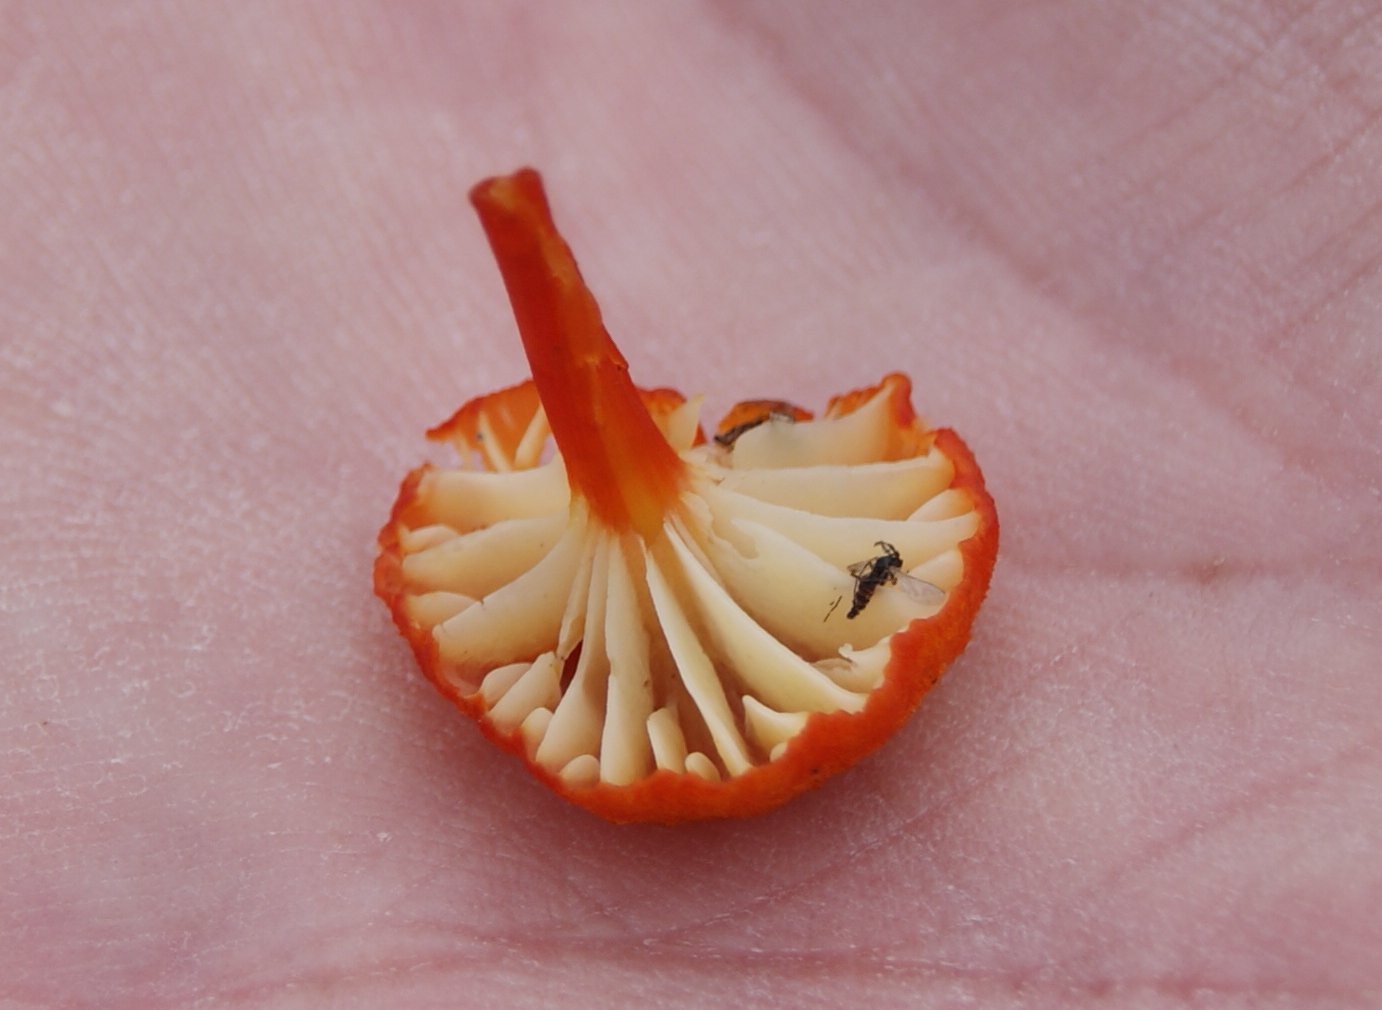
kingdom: Fungi
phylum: Basidiomycota
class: Agaricomycetes
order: Agaricales
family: Hygrophoraceae
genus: Hygrocybe
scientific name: Hygrocybe coccineocrenata
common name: tørvemos-vokshat
